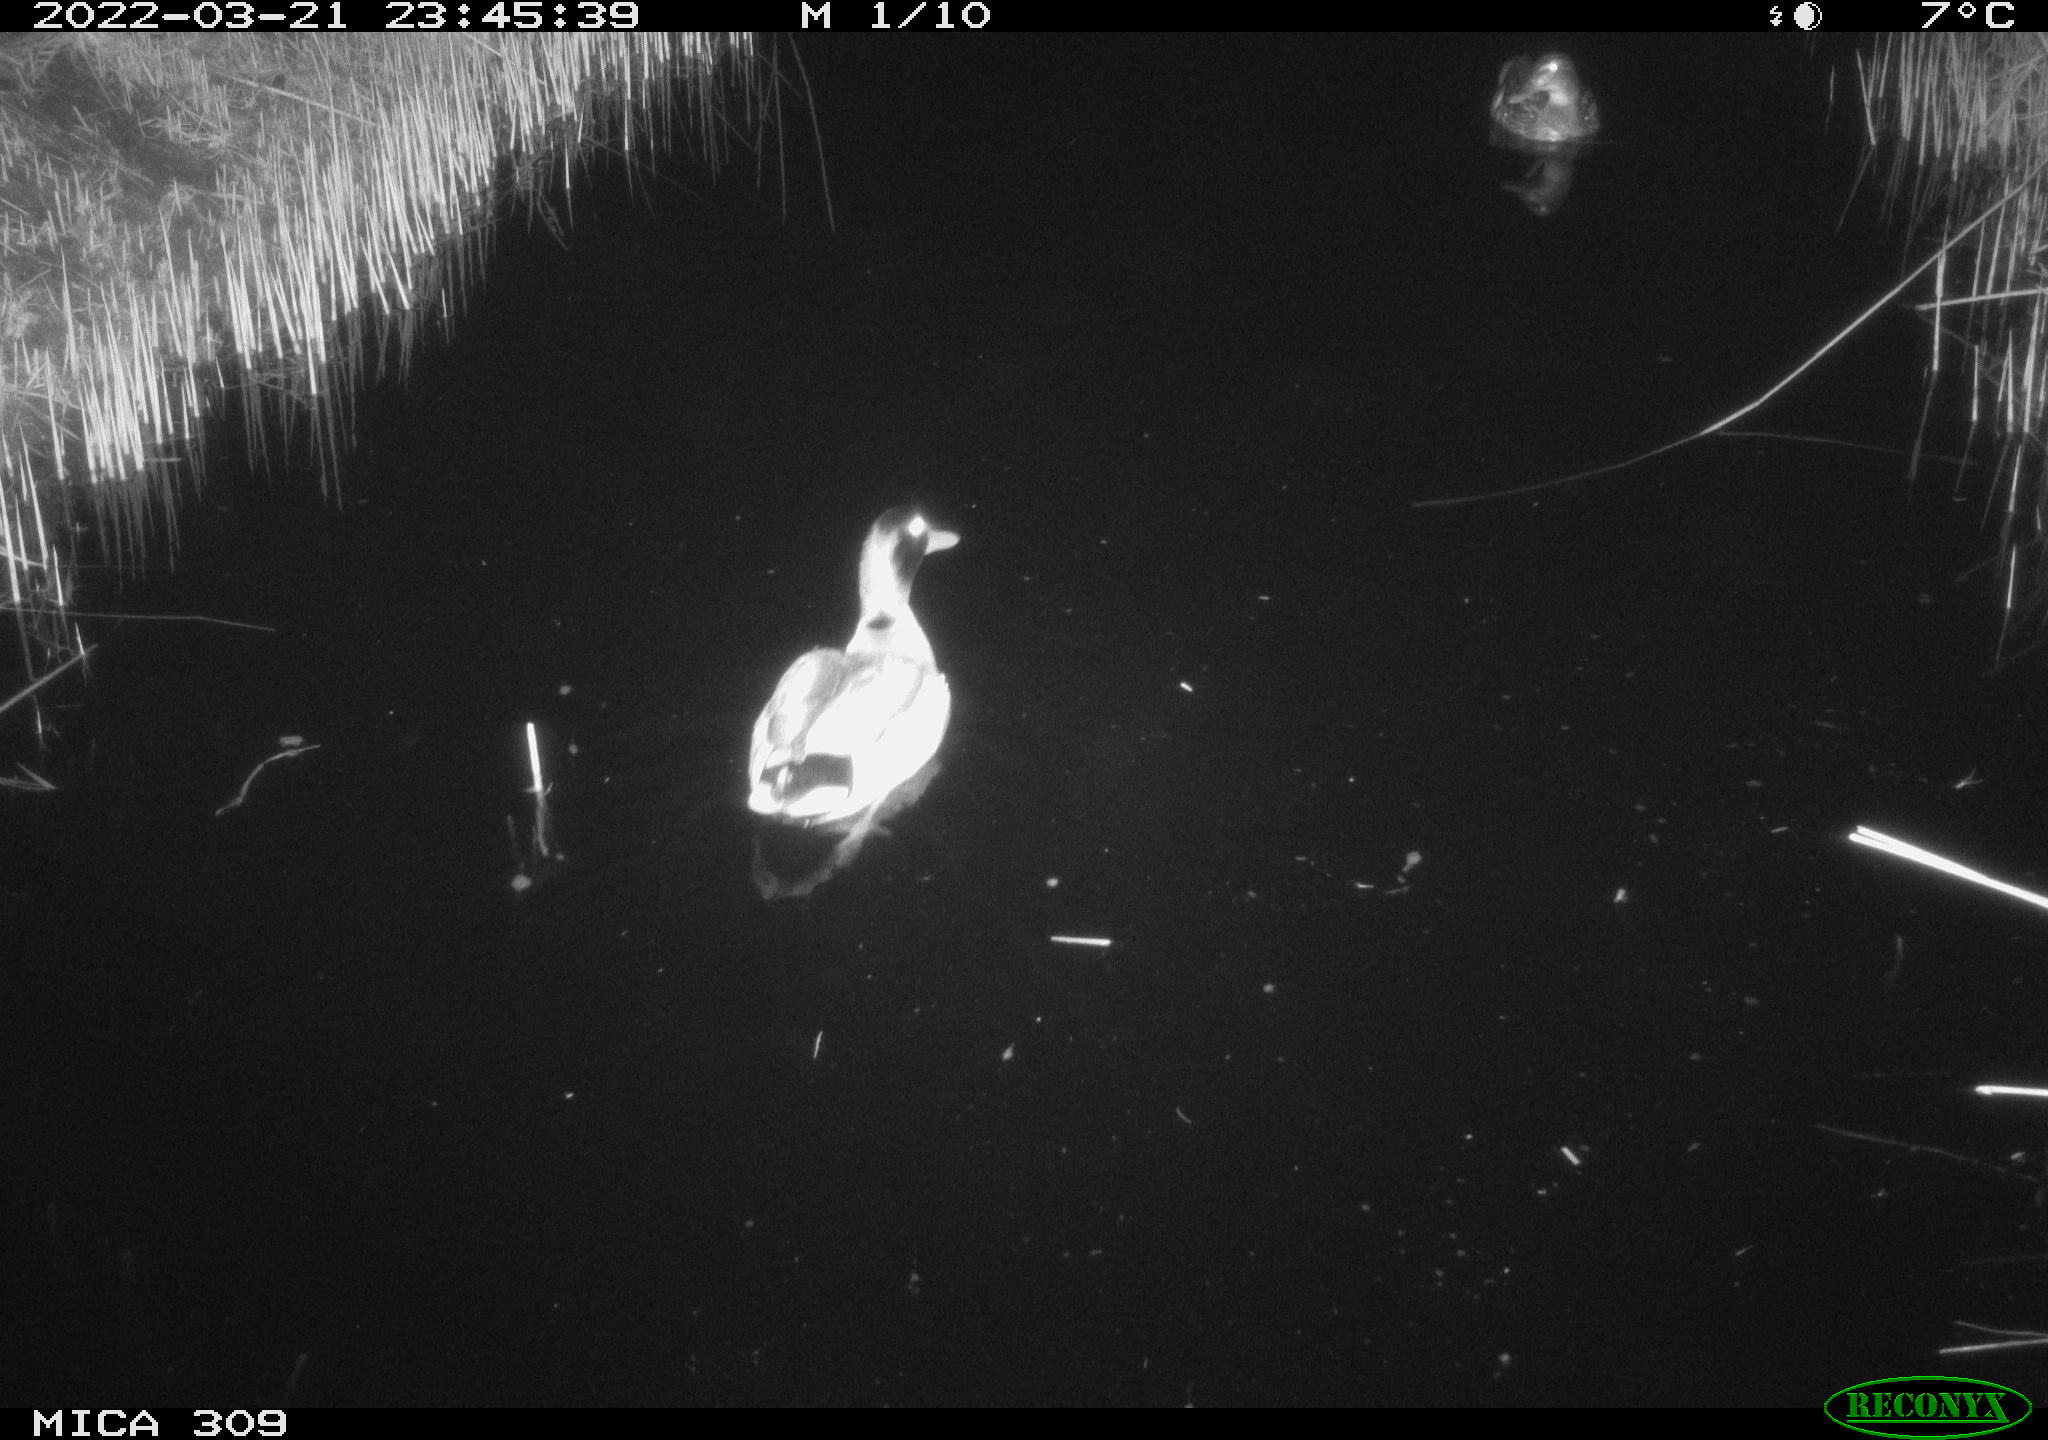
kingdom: Animalia
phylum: Chordata
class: Aves
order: Anseriformes
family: Anatidae
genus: Anas
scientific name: Anas platyrhynchos
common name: Mallard
